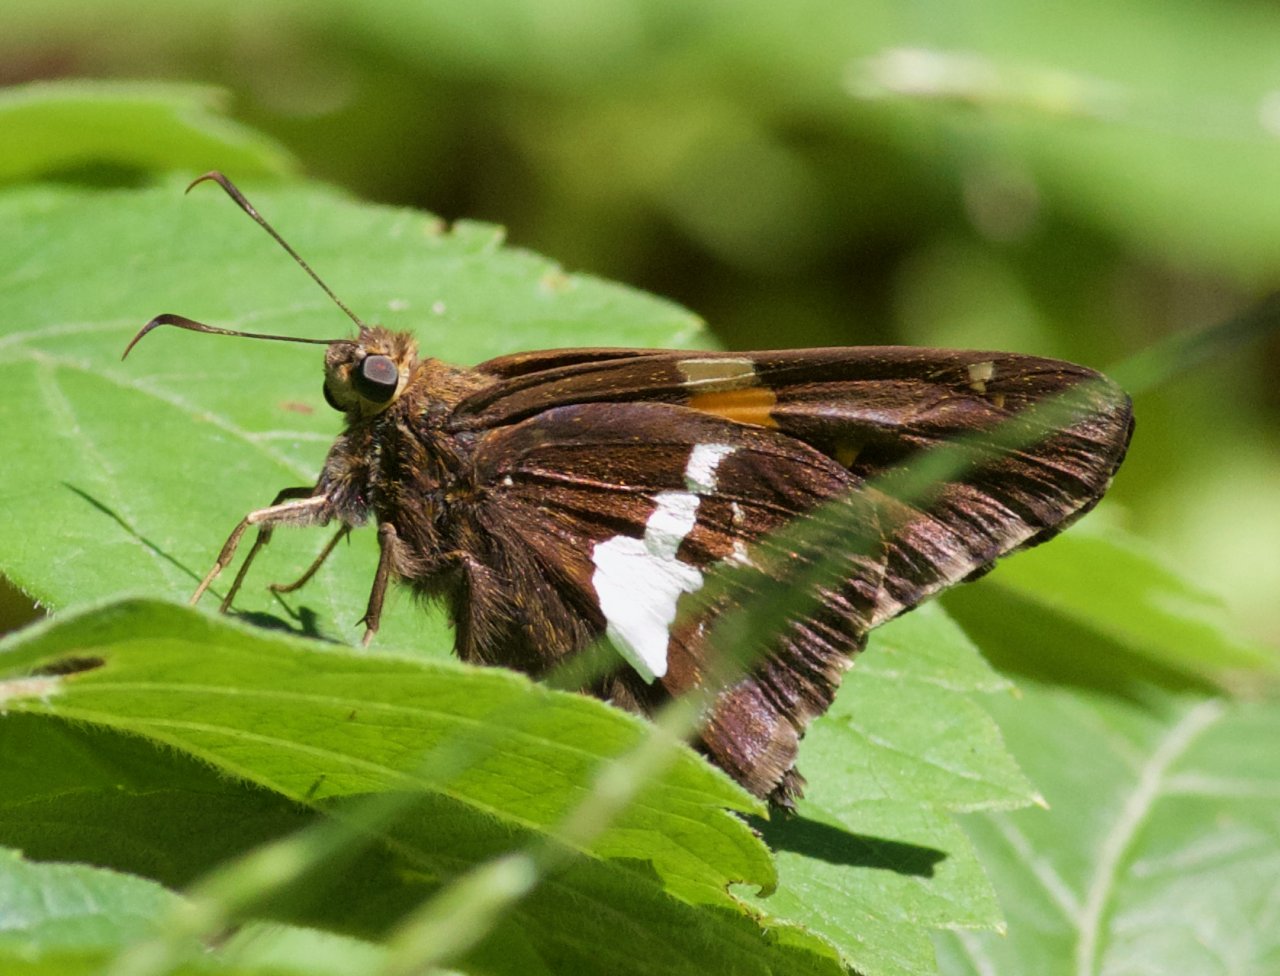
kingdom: Animalia
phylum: Arthropoda
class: Insecta
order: Lepidoptera
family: Hesperiidae
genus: Epargyreus
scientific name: Epargyreus clarus
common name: Silver-spotted Skipper
